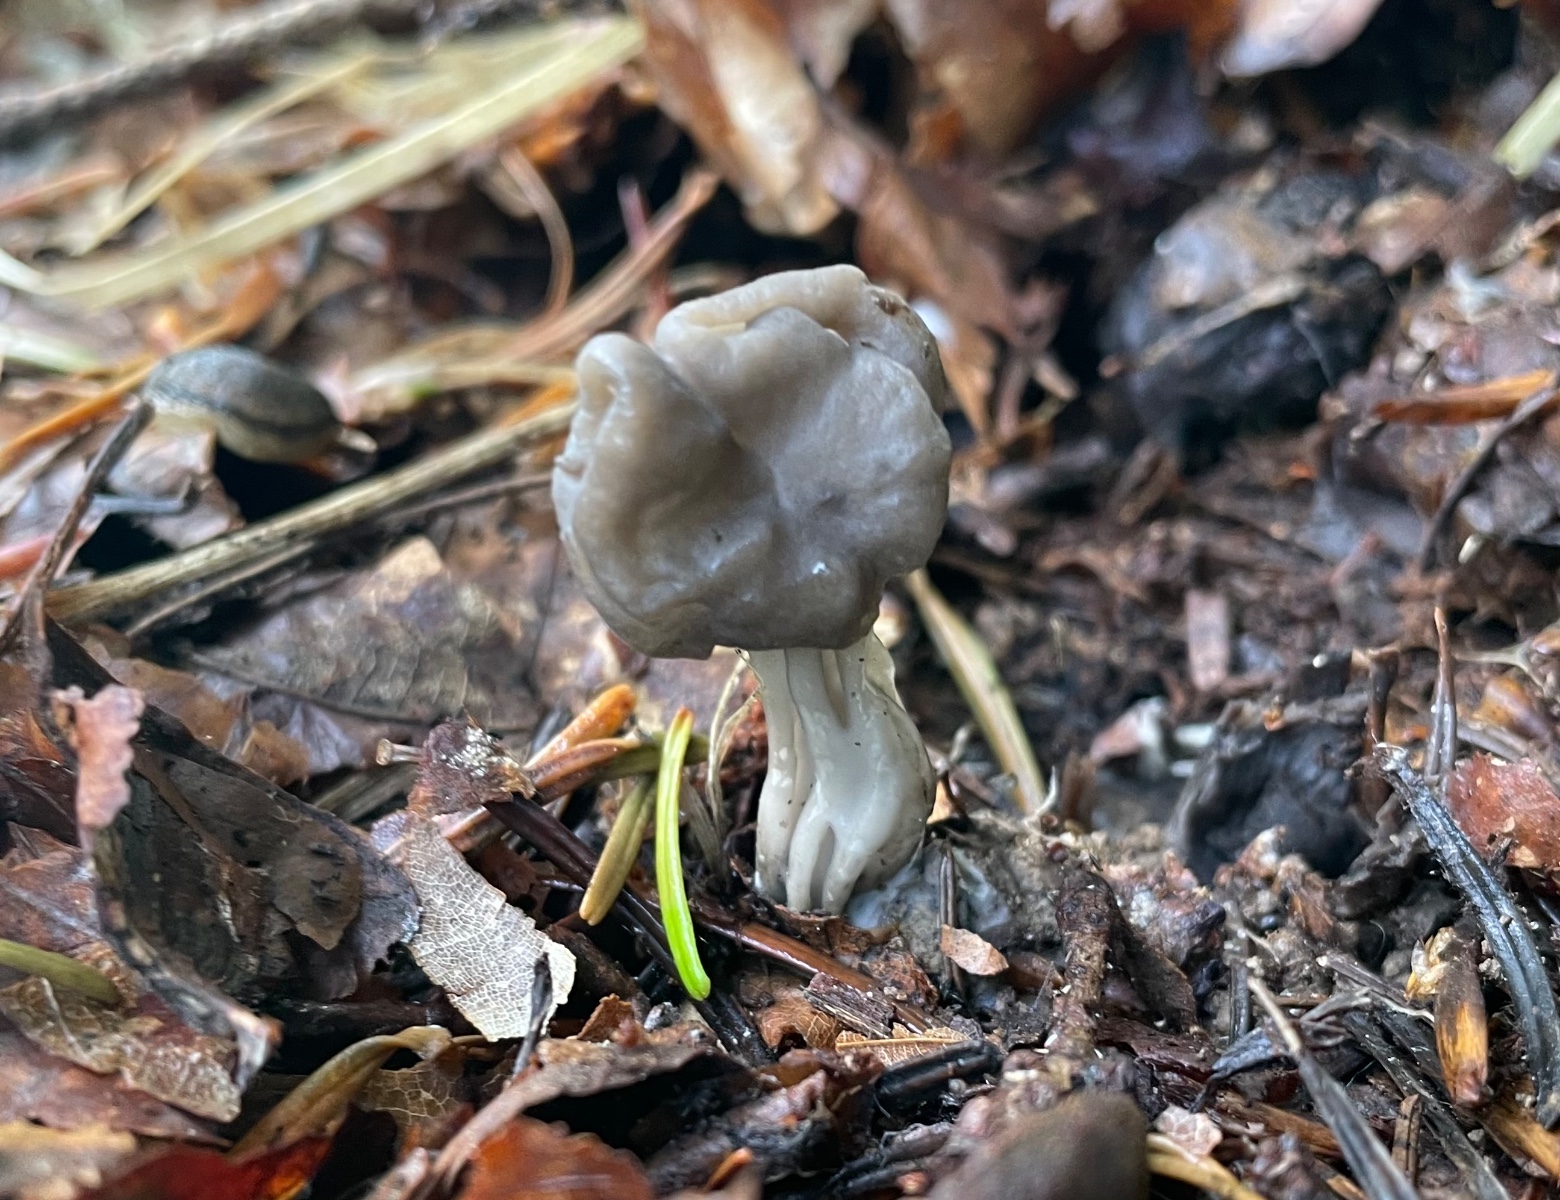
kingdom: Fungi
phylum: Ascomycota
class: Pezizomycetes
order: Pezizales
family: Helvellaceae
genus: Helvella
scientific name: Helvella lacunosa
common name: grubet foldhat
